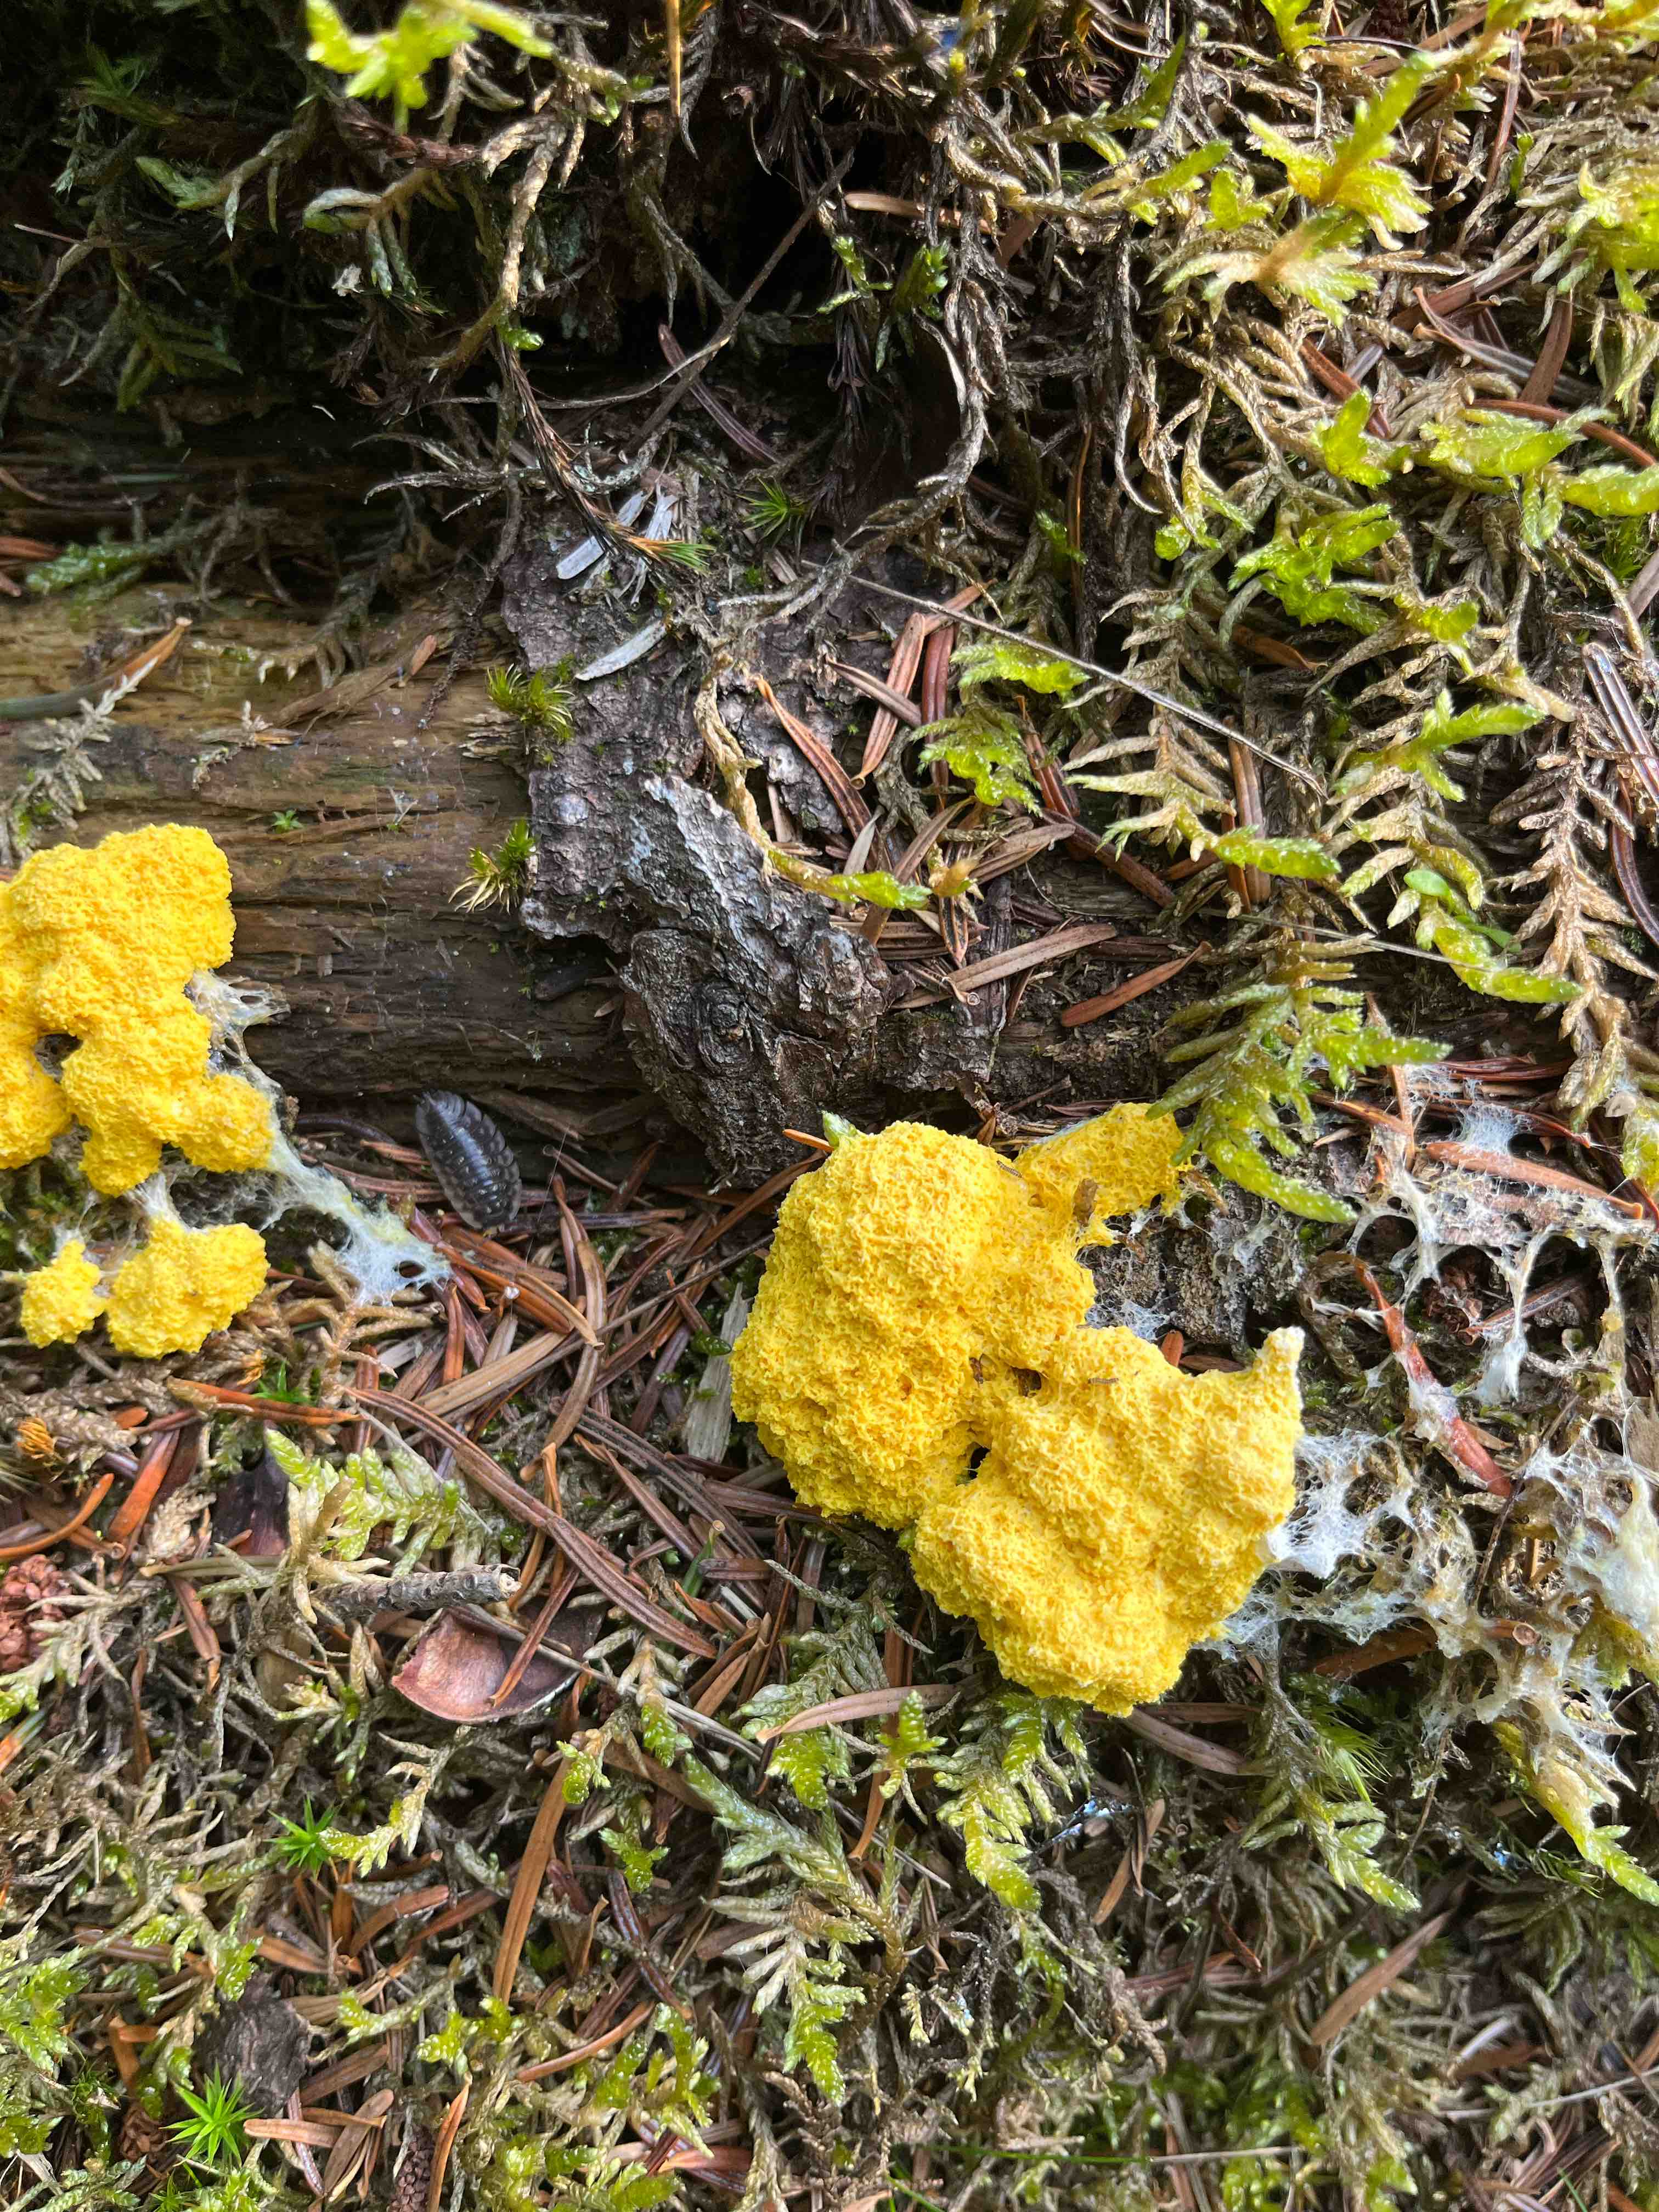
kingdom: Protozoa
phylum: Mycetozoa
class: Myxomycetes
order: Physarales
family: Physaraceae
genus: Fuligo
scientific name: Fuligo septica
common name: gul troldsmør
